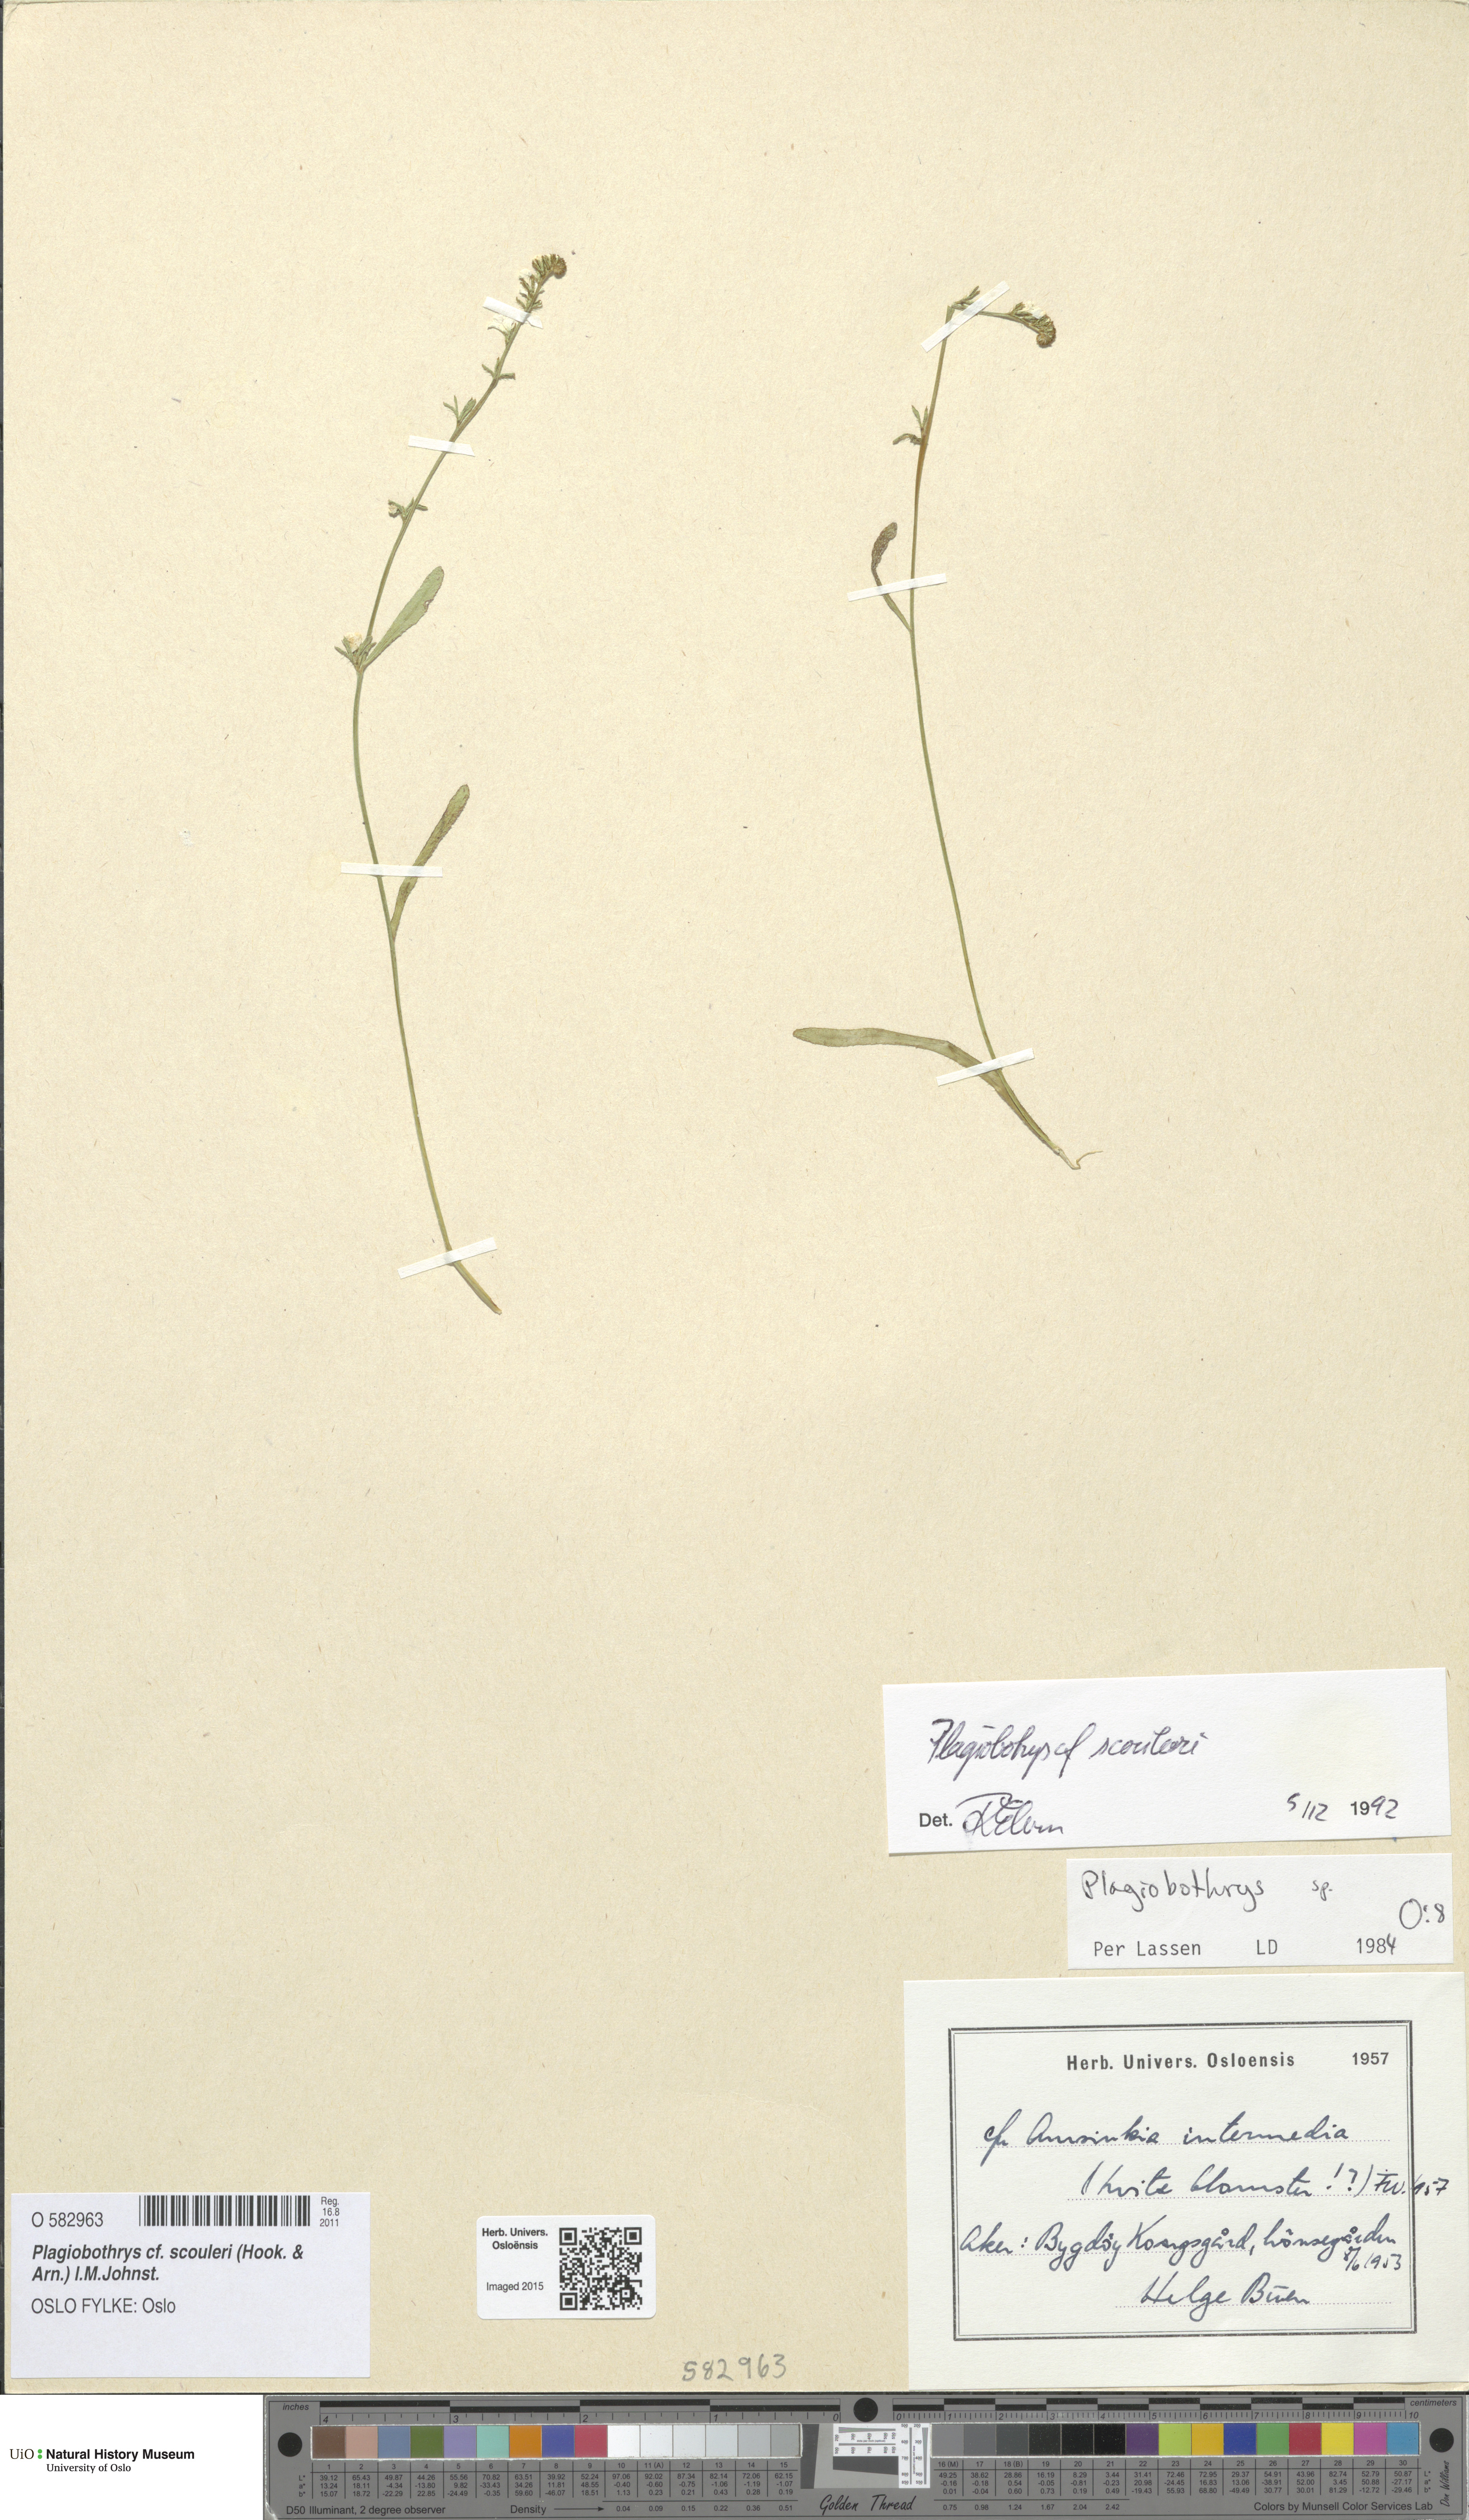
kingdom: Plantae
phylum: Tracheophyta
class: Magnoliopsida
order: Boraginales
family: Boraginaceae
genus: Plagiobothrys
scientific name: Plagiobothrys scouleri
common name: White forget-me-not
